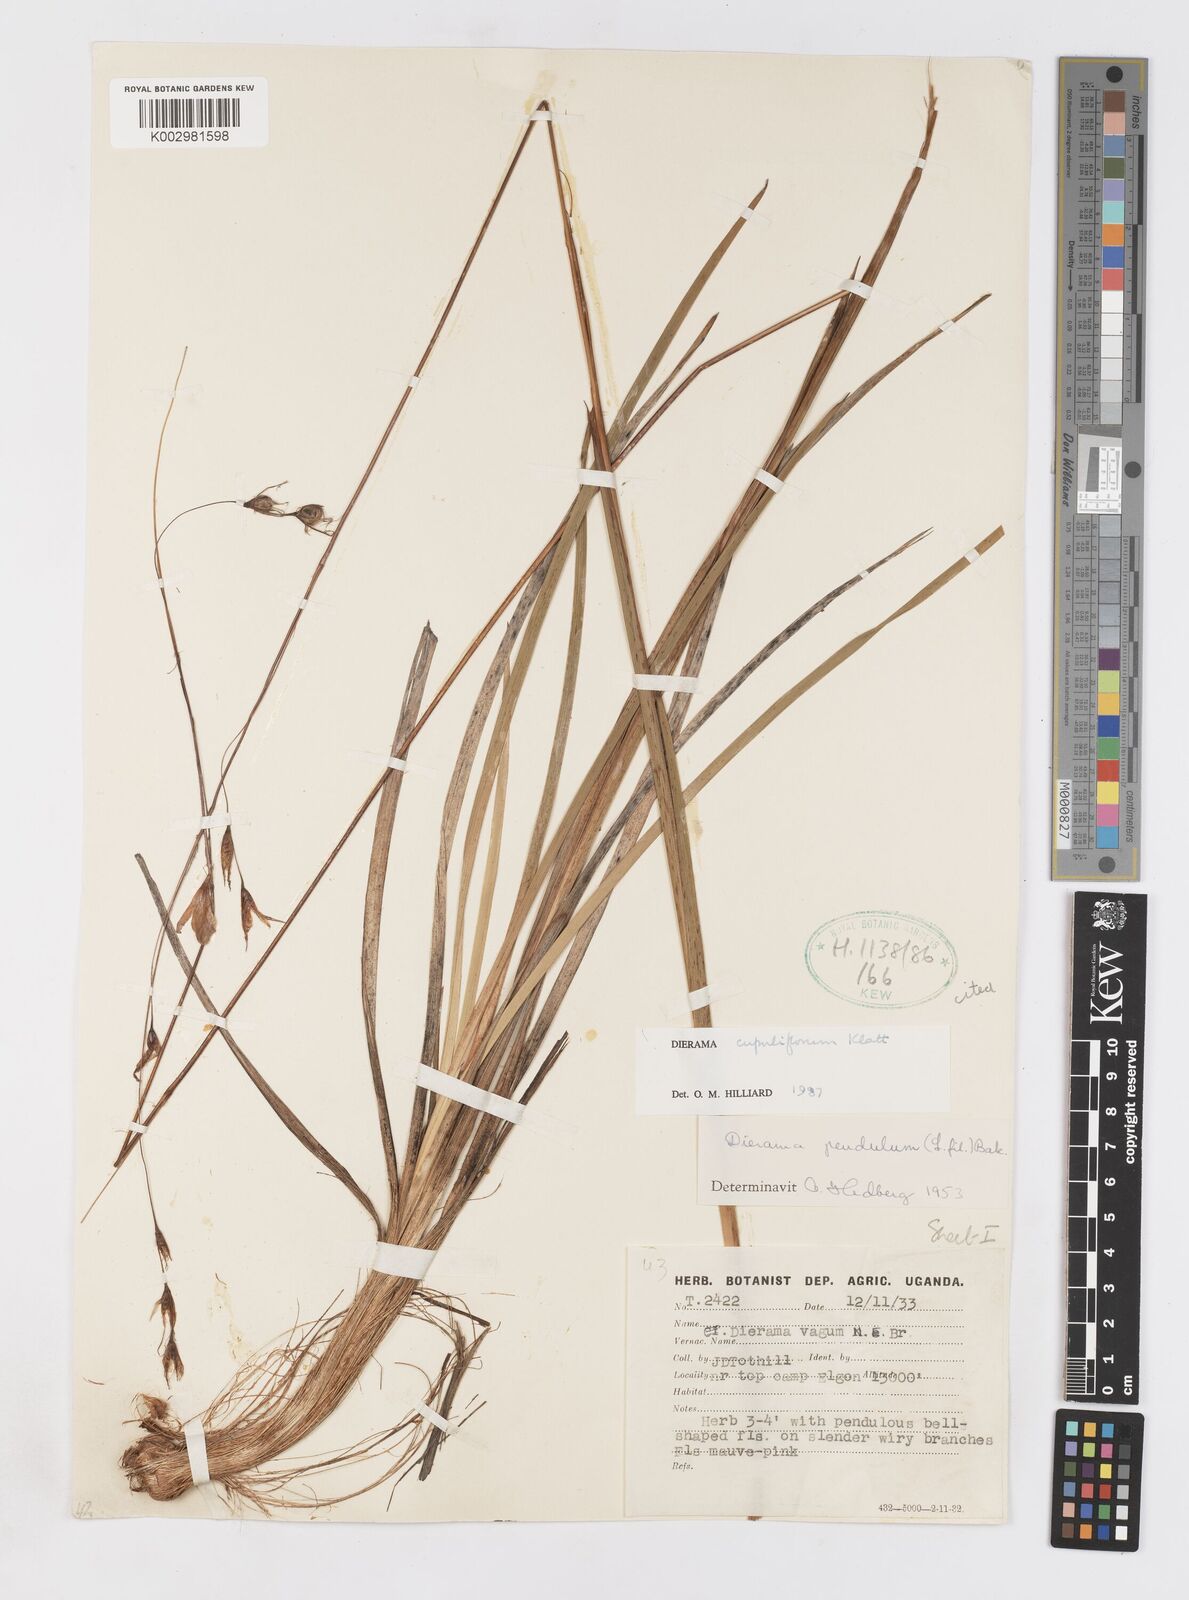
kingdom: Plantae
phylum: Tracheophyta
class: Liliopsida
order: Asparagales
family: Iridaceae
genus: Dierama
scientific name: Dierama cupuliflorum
